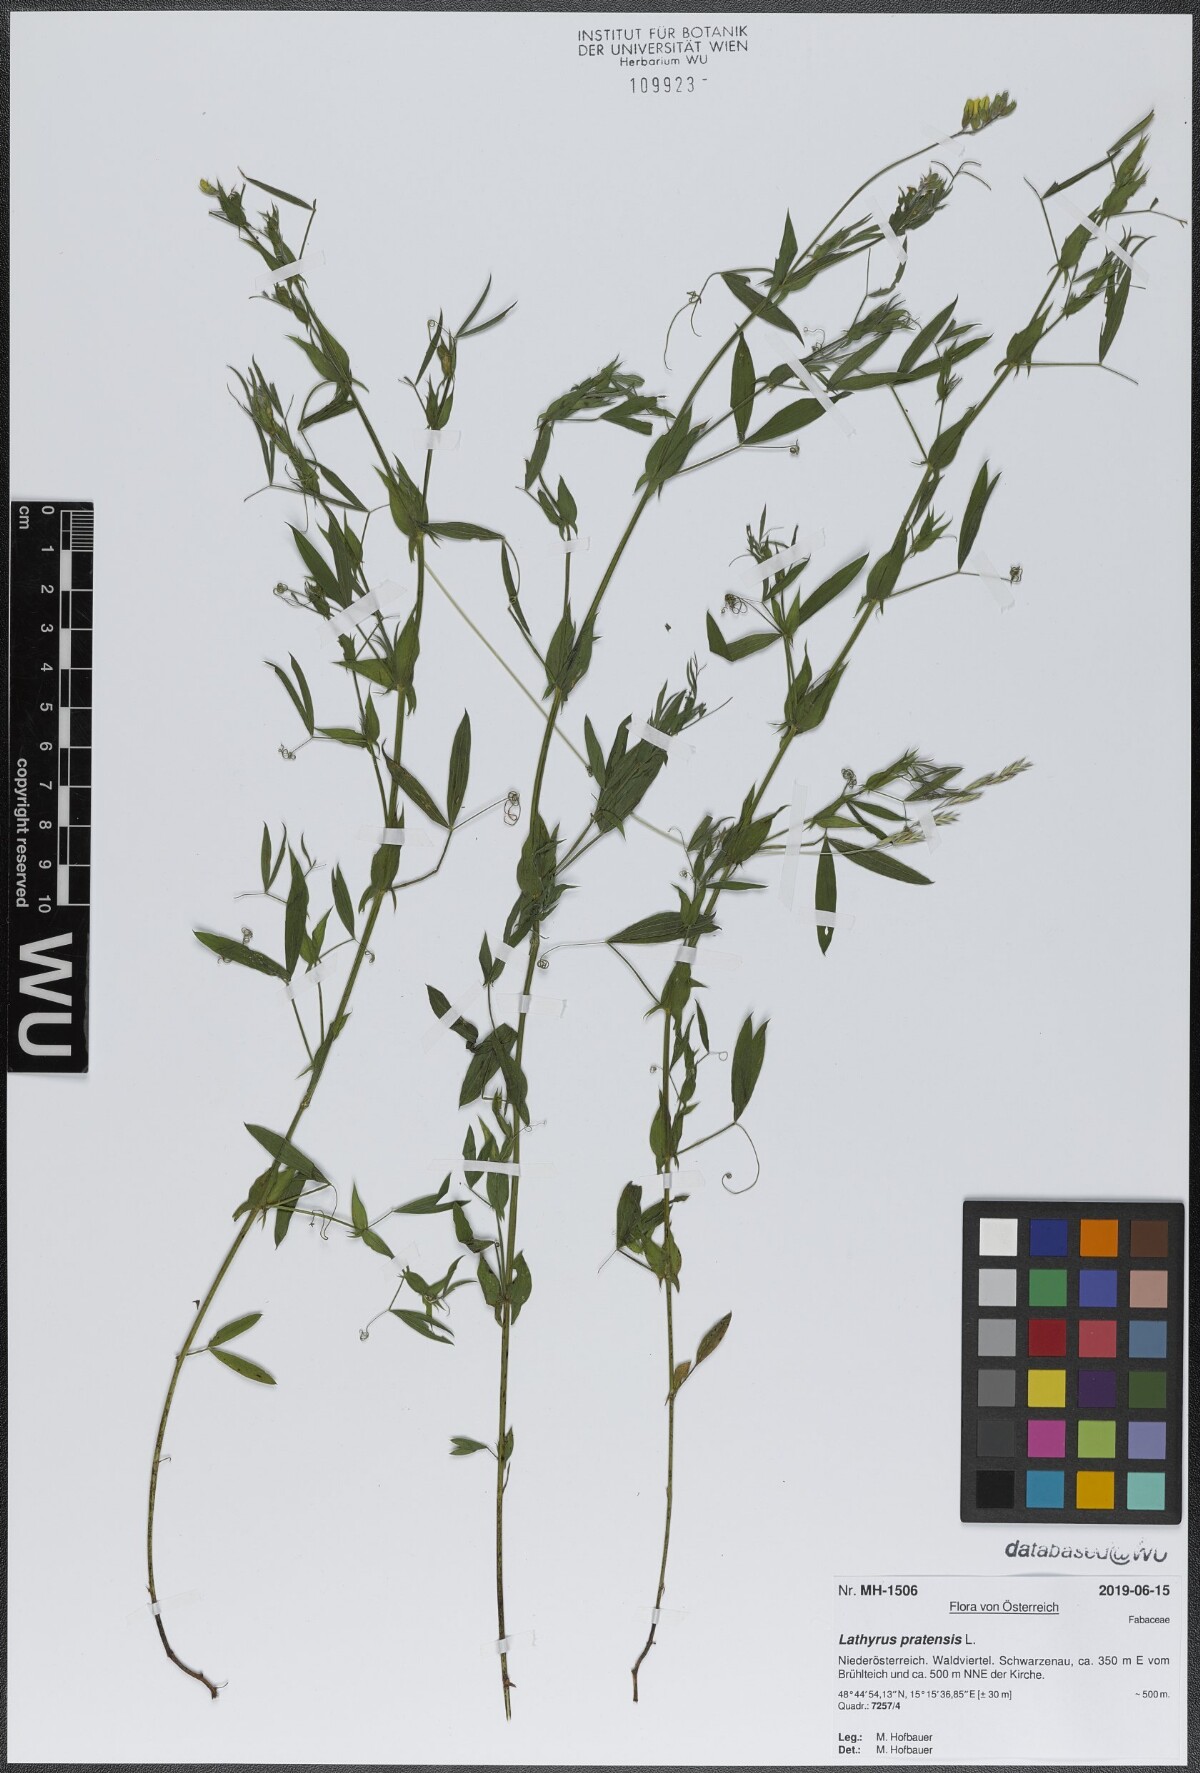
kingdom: Plantae
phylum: Tracheophyta
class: Magnoliopsida
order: Fabales
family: Fabaceae
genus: Lathyrus
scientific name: Lathyrus pratensis
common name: Meadow vetchling
